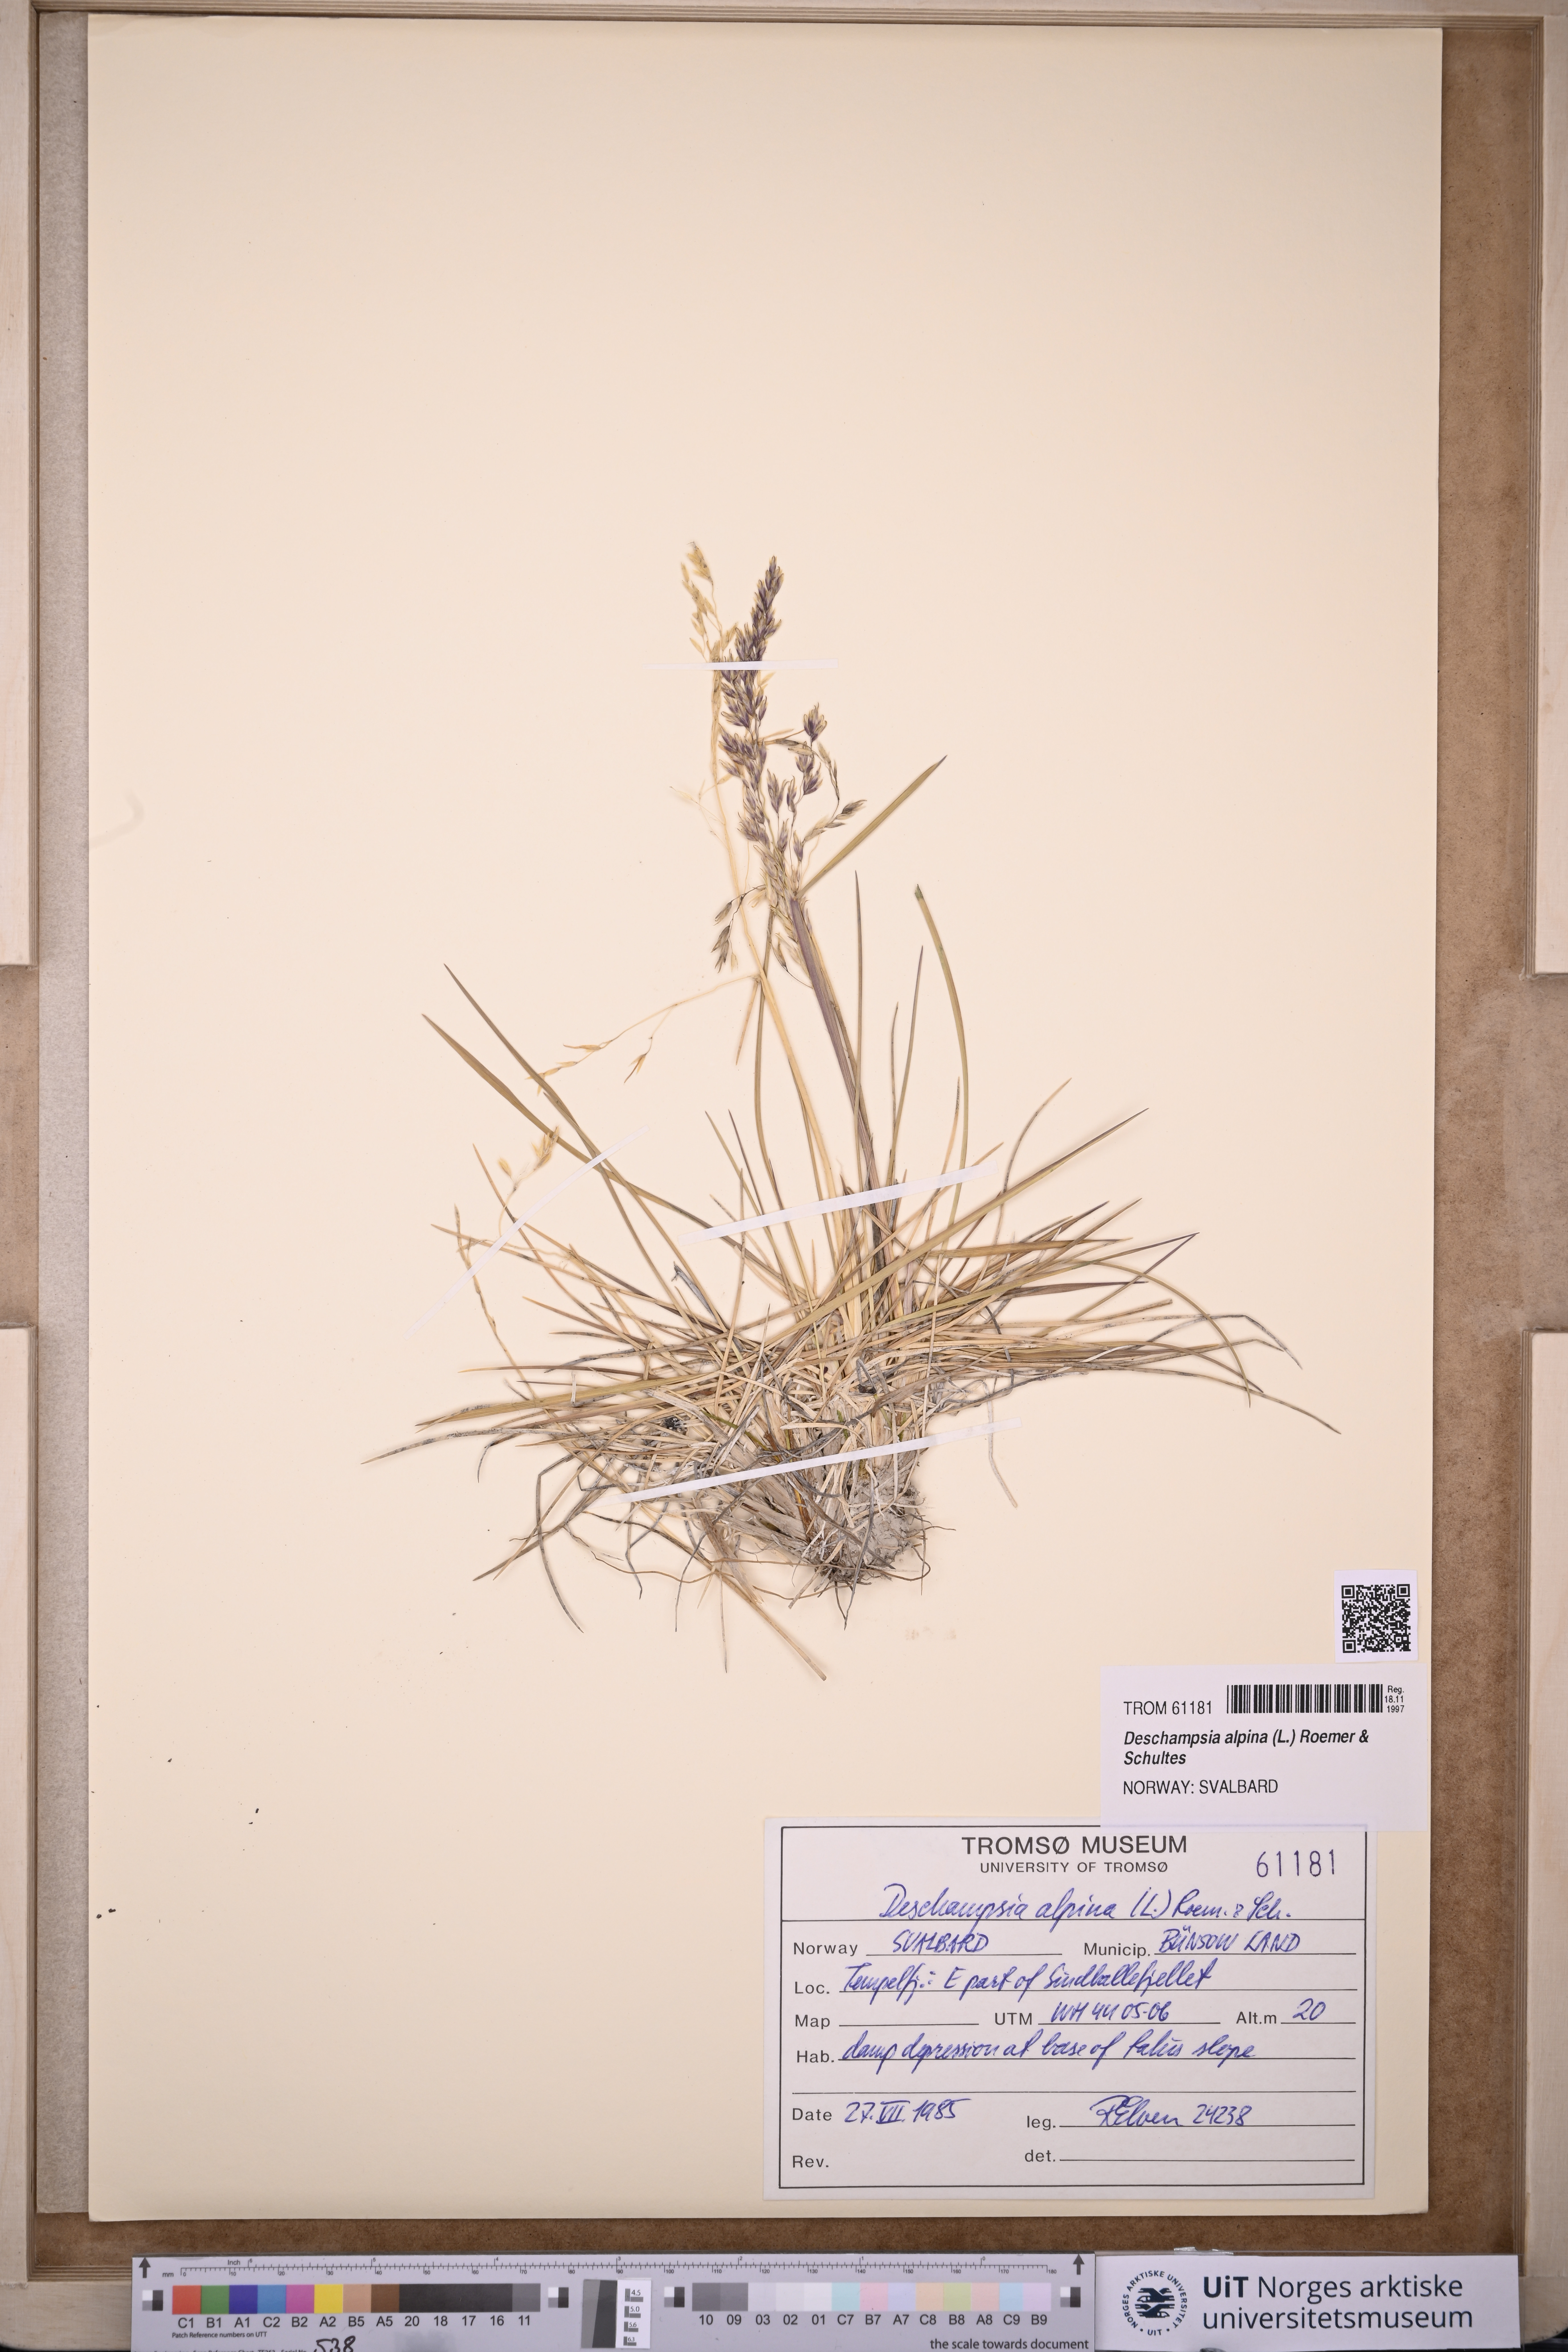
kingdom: Plantae
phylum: Tracheophyta
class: Liliopsida
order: Poales
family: Poaceae
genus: Deschampsia
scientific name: Deschampsia cespitosa
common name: Tufted hair-grass
